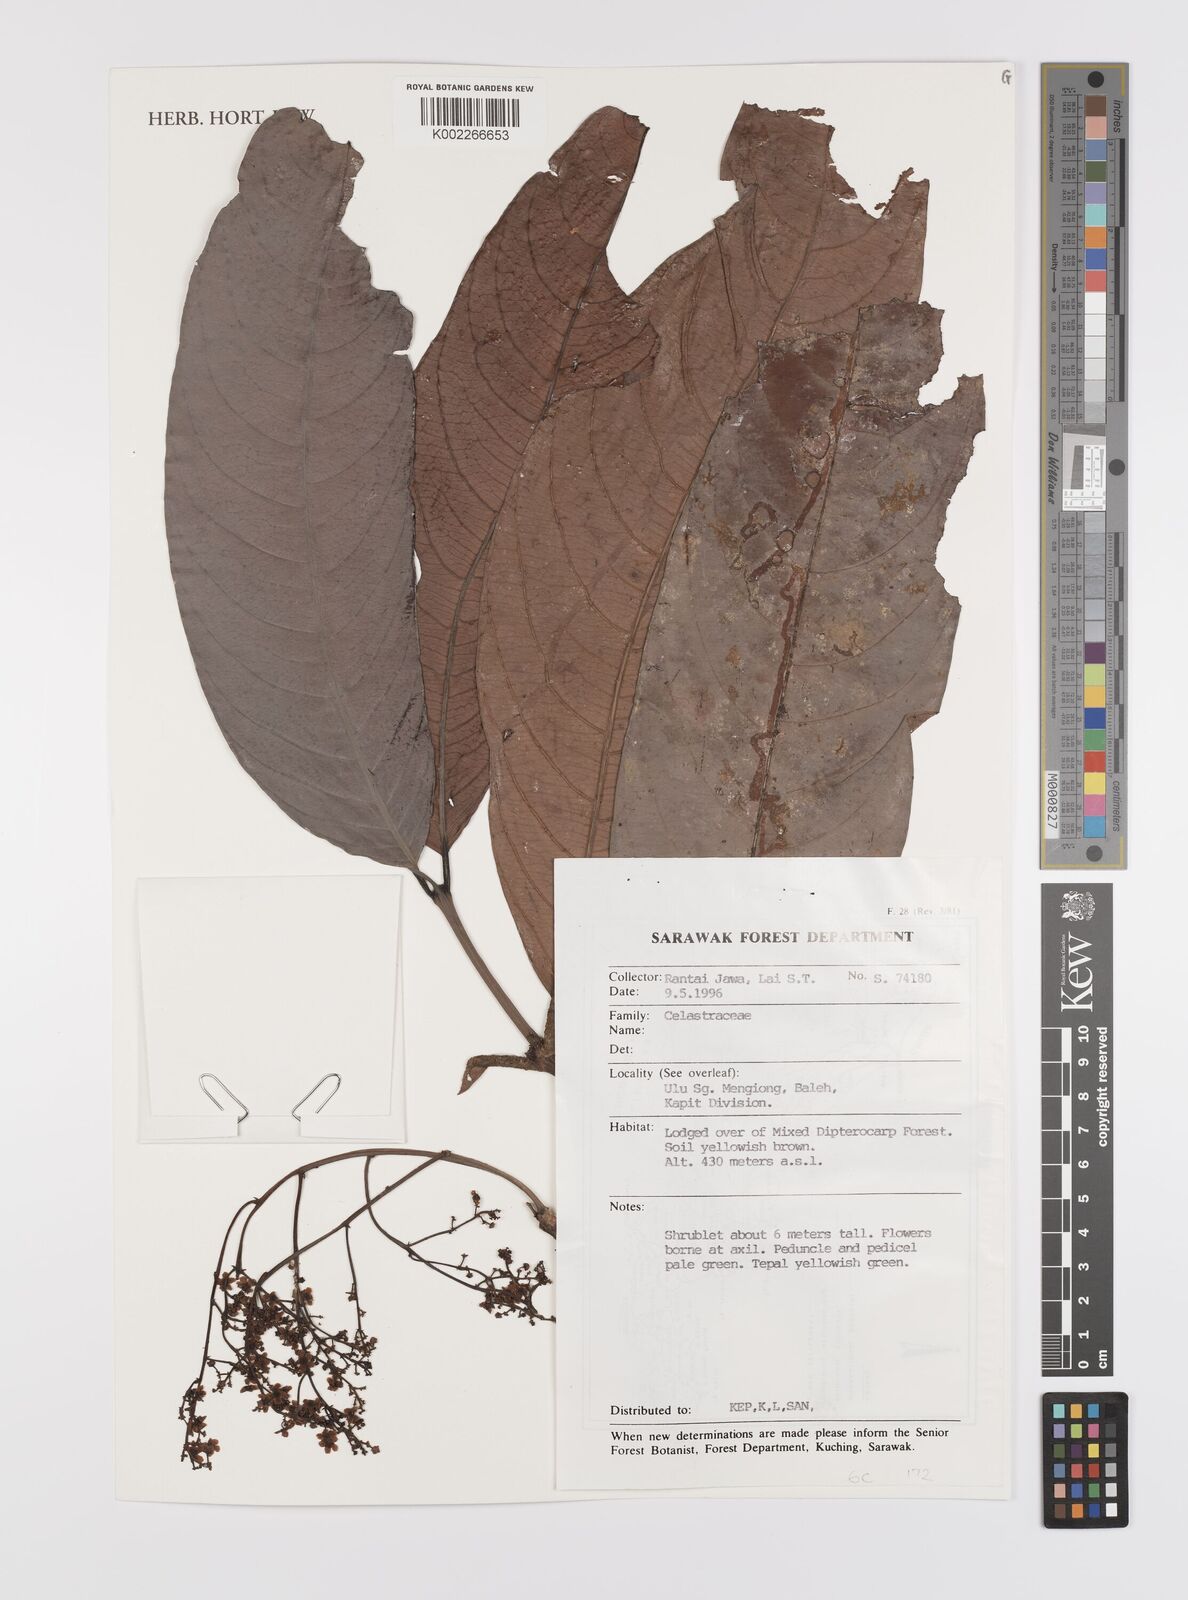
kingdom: Plantae
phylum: Tracheophyta
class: Magnoliopsida
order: Celastrales
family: Celastraceae
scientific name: Celastraceae
